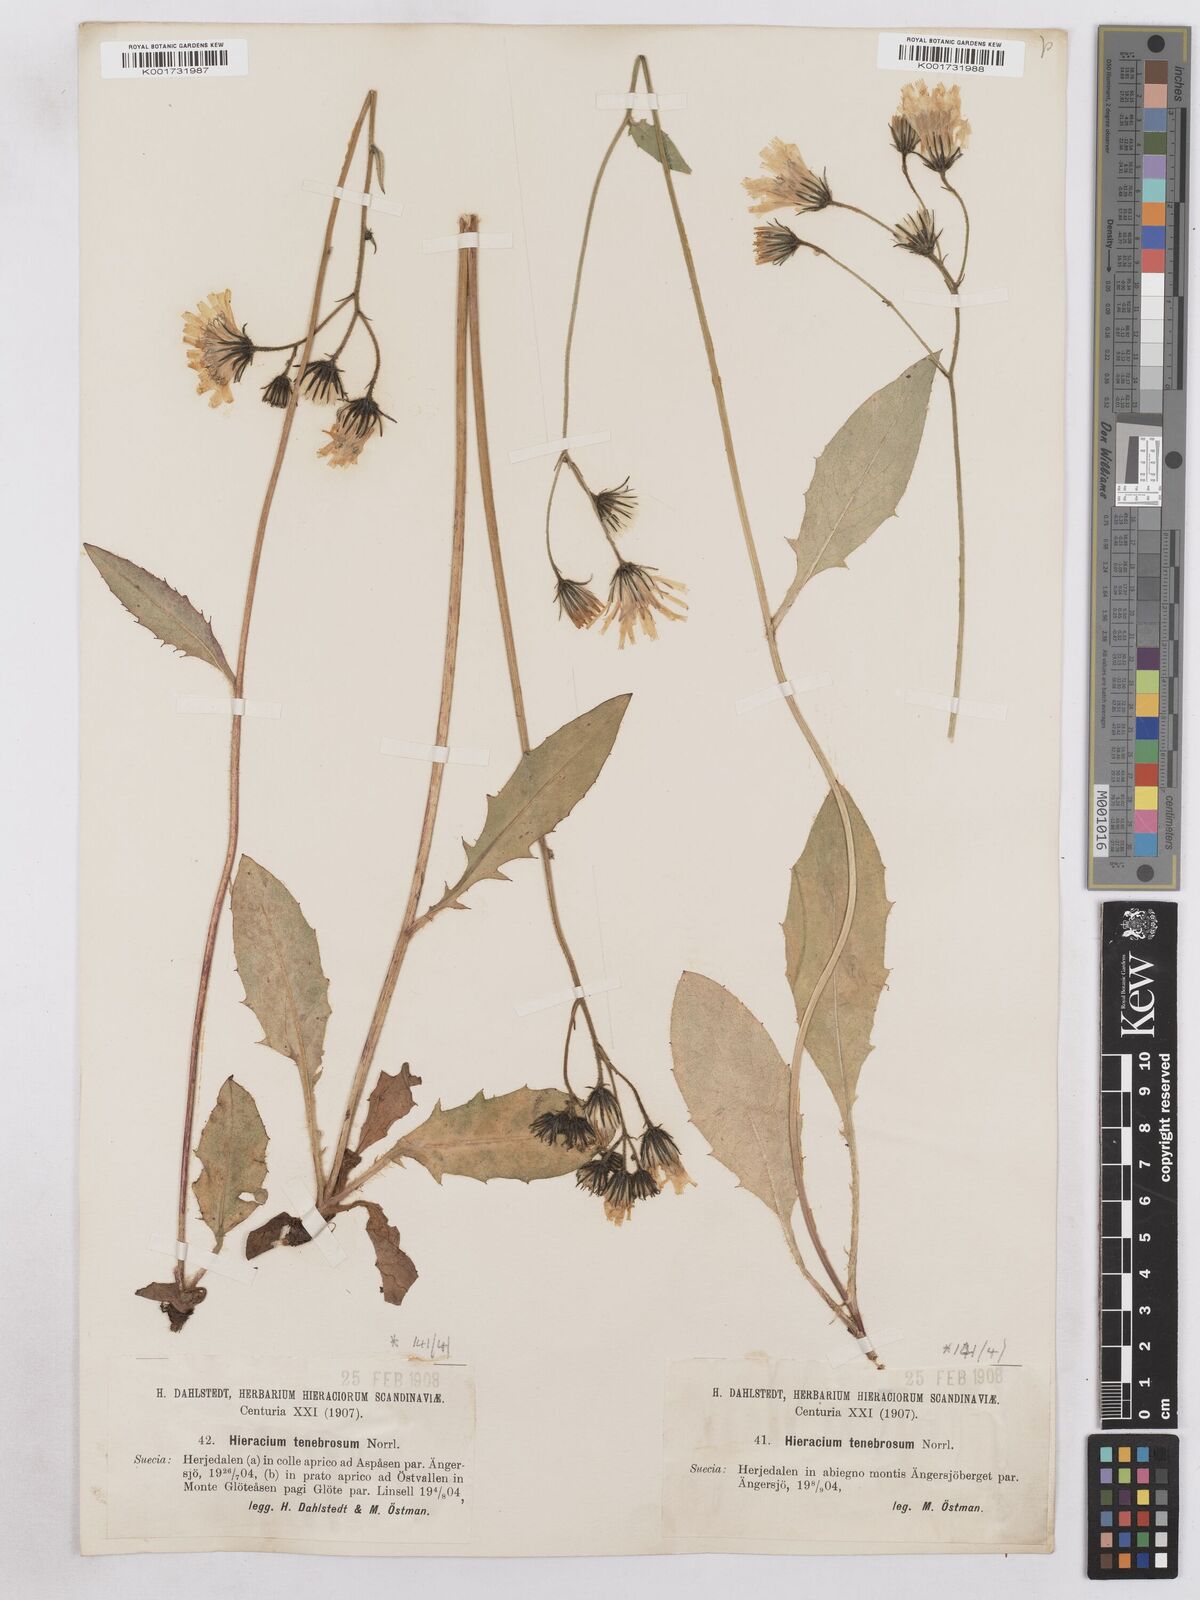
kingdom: Plantae
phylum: Tracheophyta
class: Magnoliopsida
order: Asterales
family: Asteraceae
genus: Hieracium
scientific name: Hieracium diaphanoides
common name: Fine-bracted hawkweed
